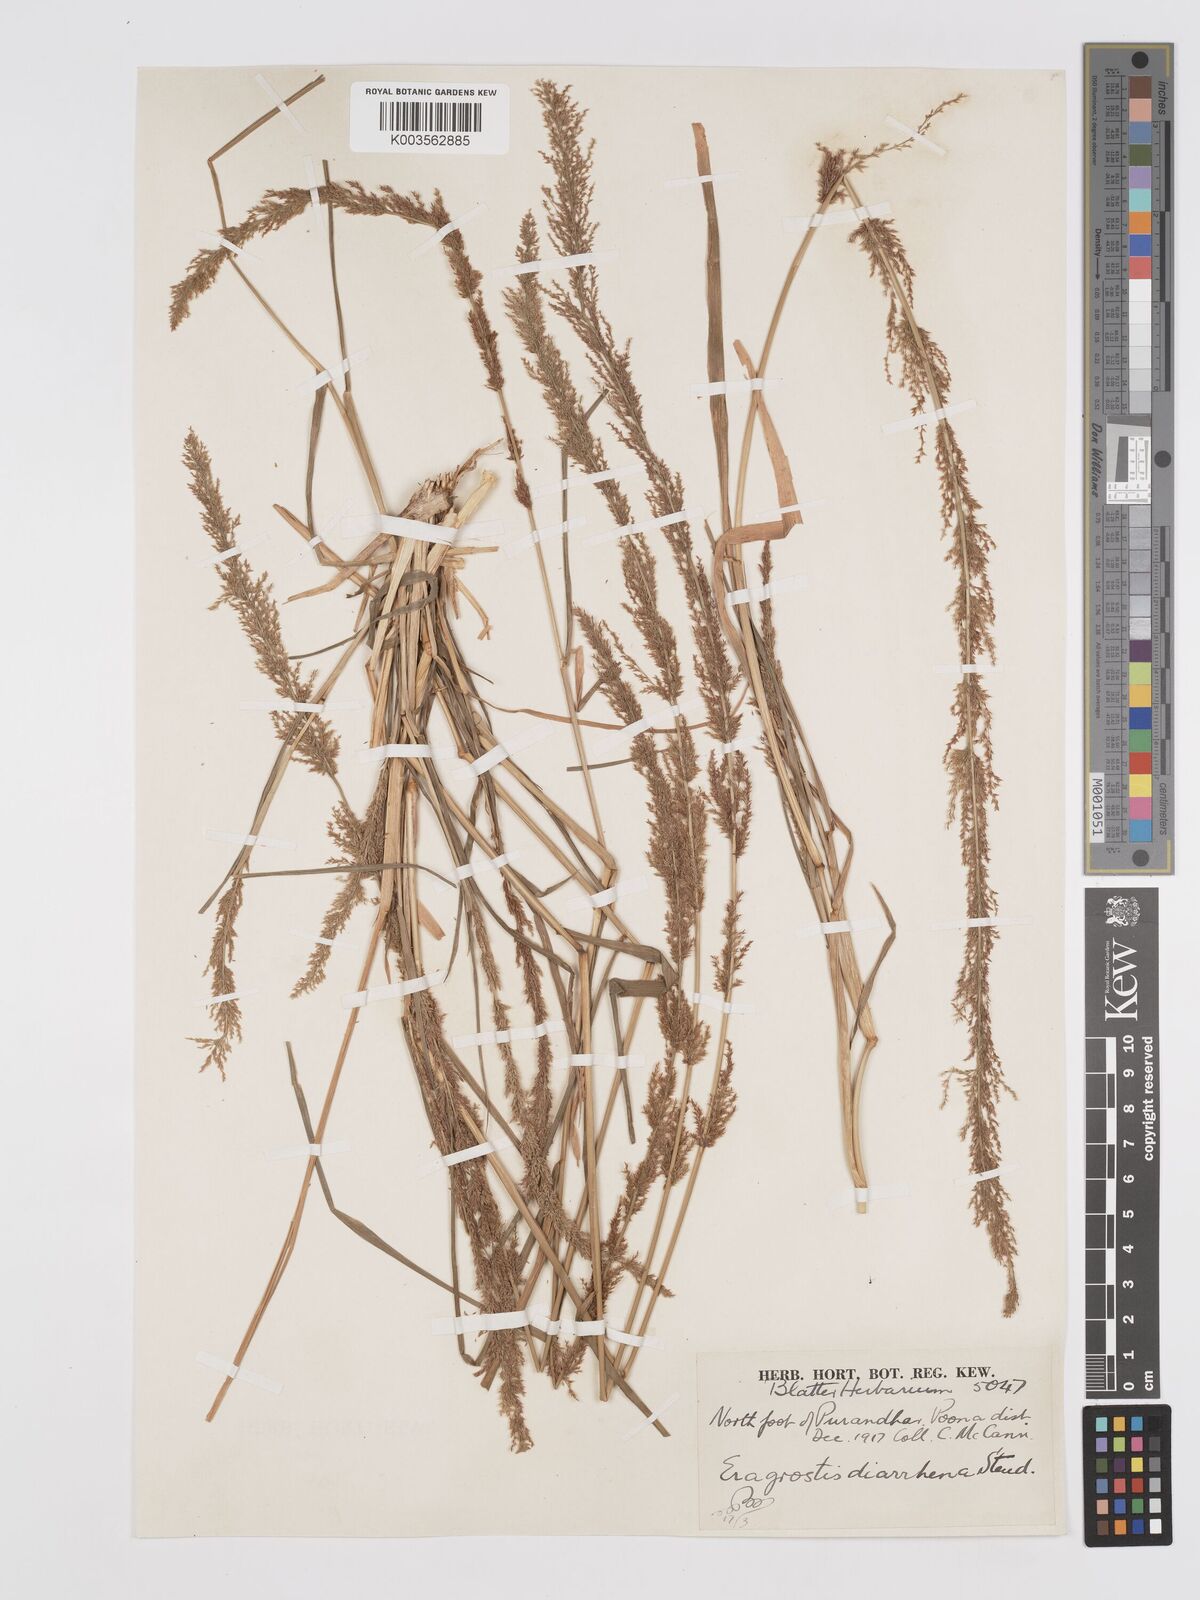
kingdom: Plantae
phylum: Tracheophyta
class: Liliopsida
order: Poales
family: Poaceae
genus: Eragrostis
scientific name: Eragrostis japonica
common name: Pond lovegrass
